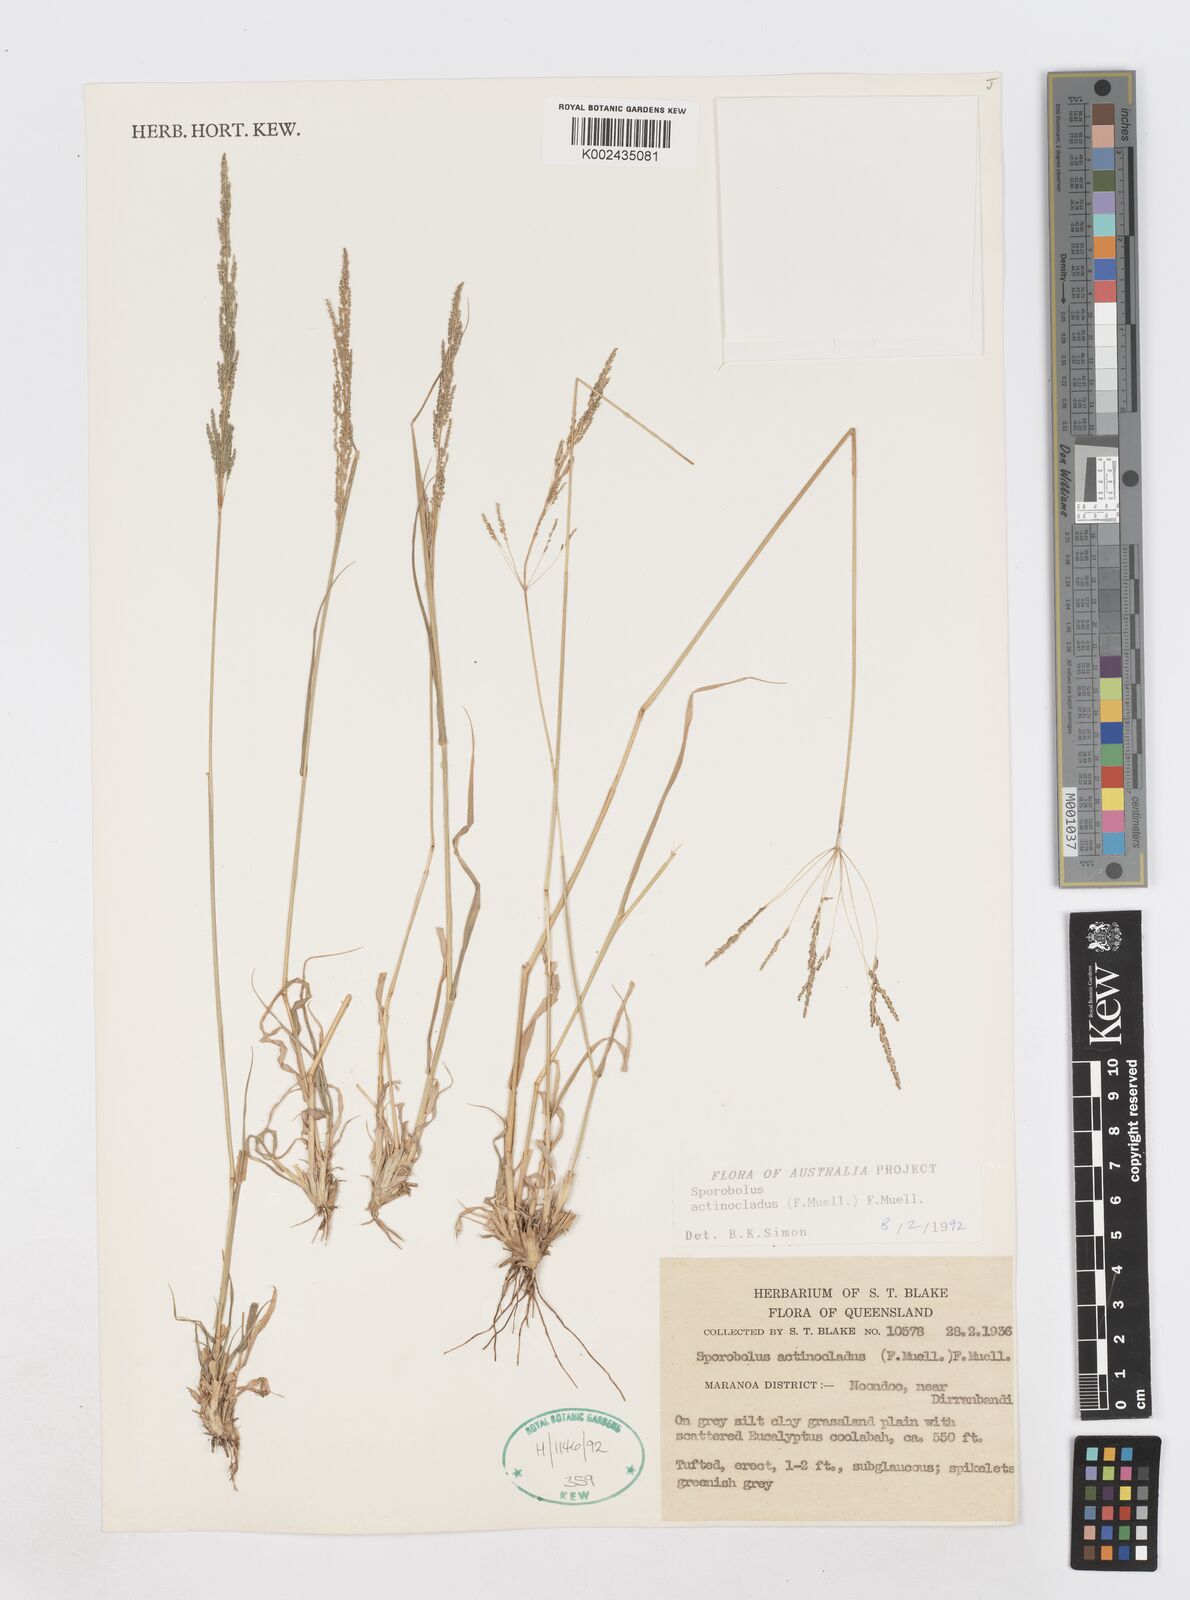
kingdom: Plantae
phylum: Tracheophyta
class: Liliopsida
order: Poales
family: Poaceae
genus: Sporobolus
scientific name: Sporobolus actinocladus
